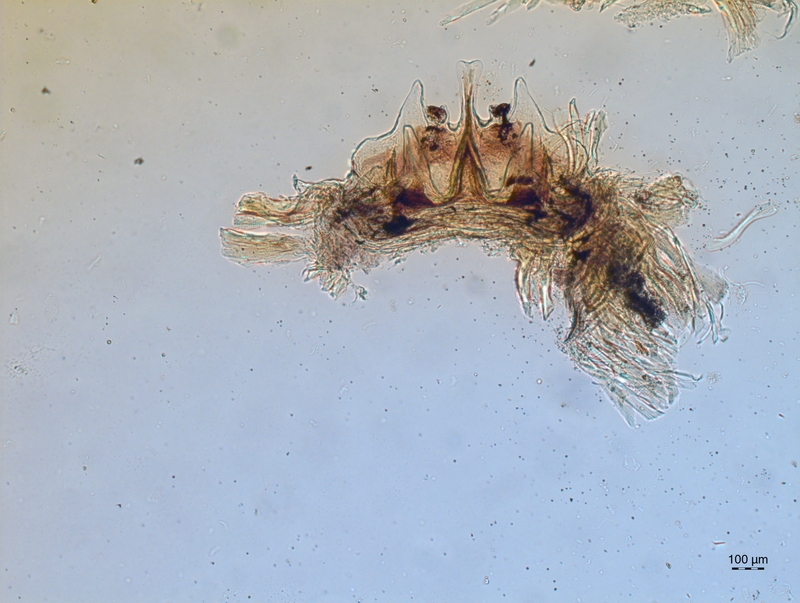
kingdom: Animalia
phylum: Arthropoda
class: Diplopoda
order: Chordeumatida
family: Craspedosomatidae
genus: Craspedosoma
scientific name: Craspedosoma alemannicum
